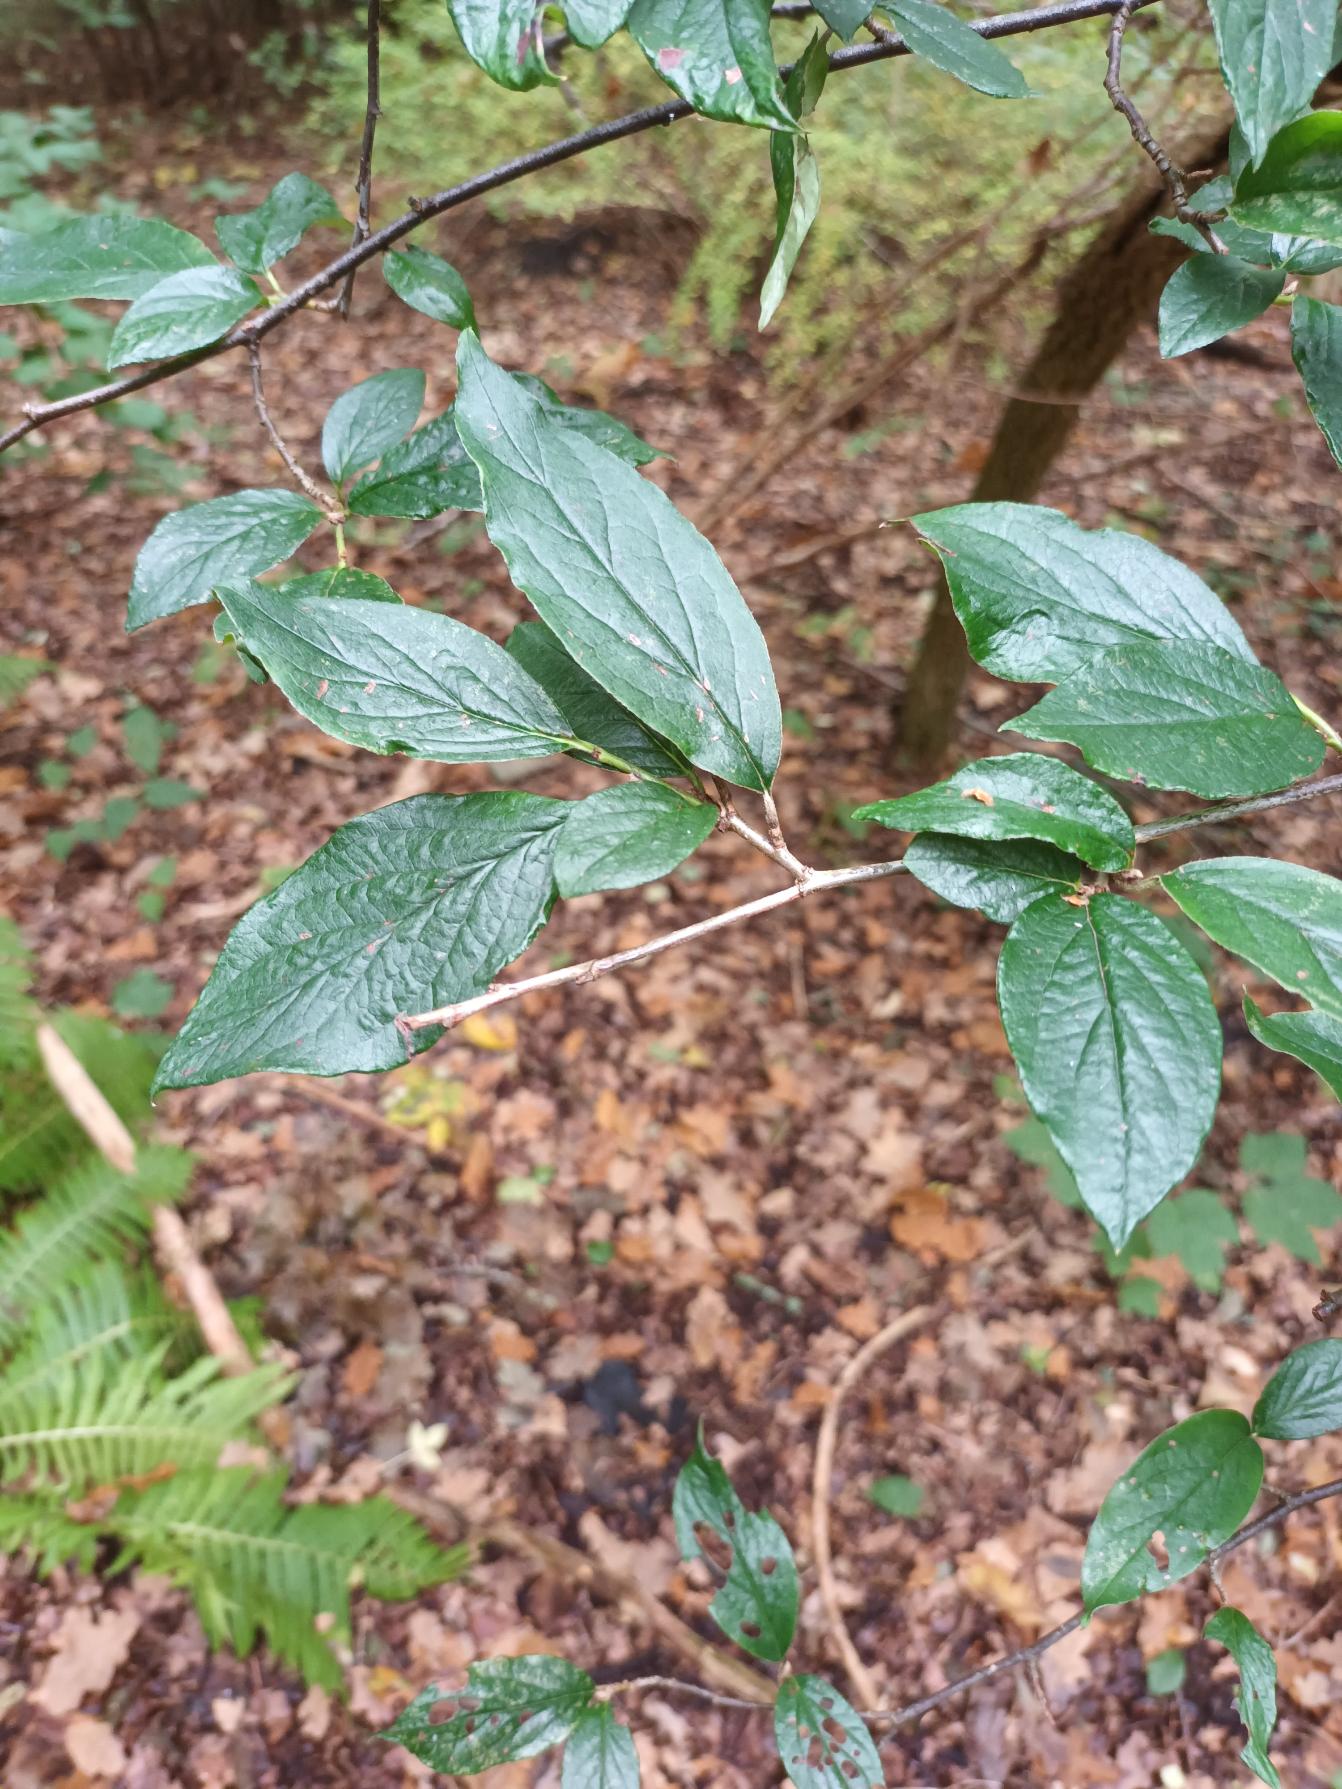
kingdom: Plantae
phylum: Tracheophyta
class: Magnoliopsida
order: Rosales
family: Rosaceae
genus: Cotoneaster
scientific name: Cotoneaster moupinensis
